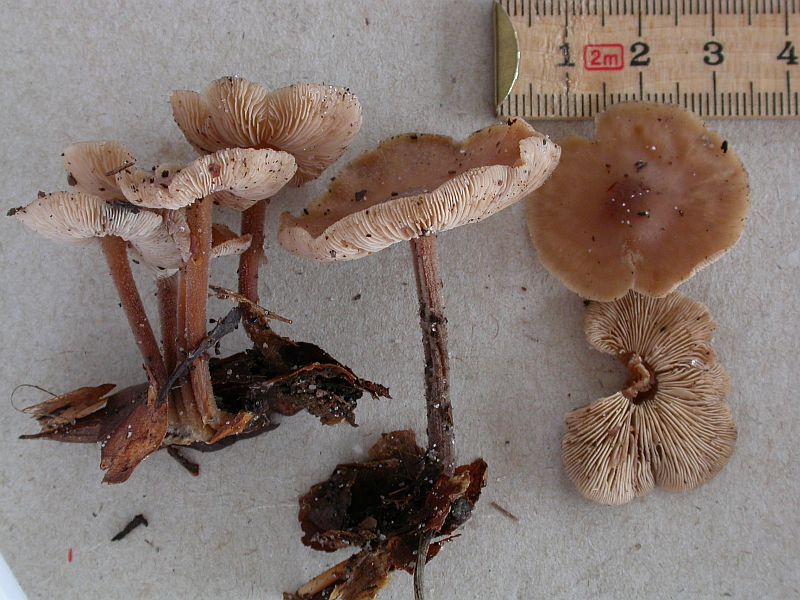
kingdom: Fungi
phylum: Basidiomycota
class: Agaricomycetes
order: Agaricales
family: Omphalotaceae
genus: Collybiopsis
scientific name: Collybiopsis confluens
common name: knippe-fladhat
